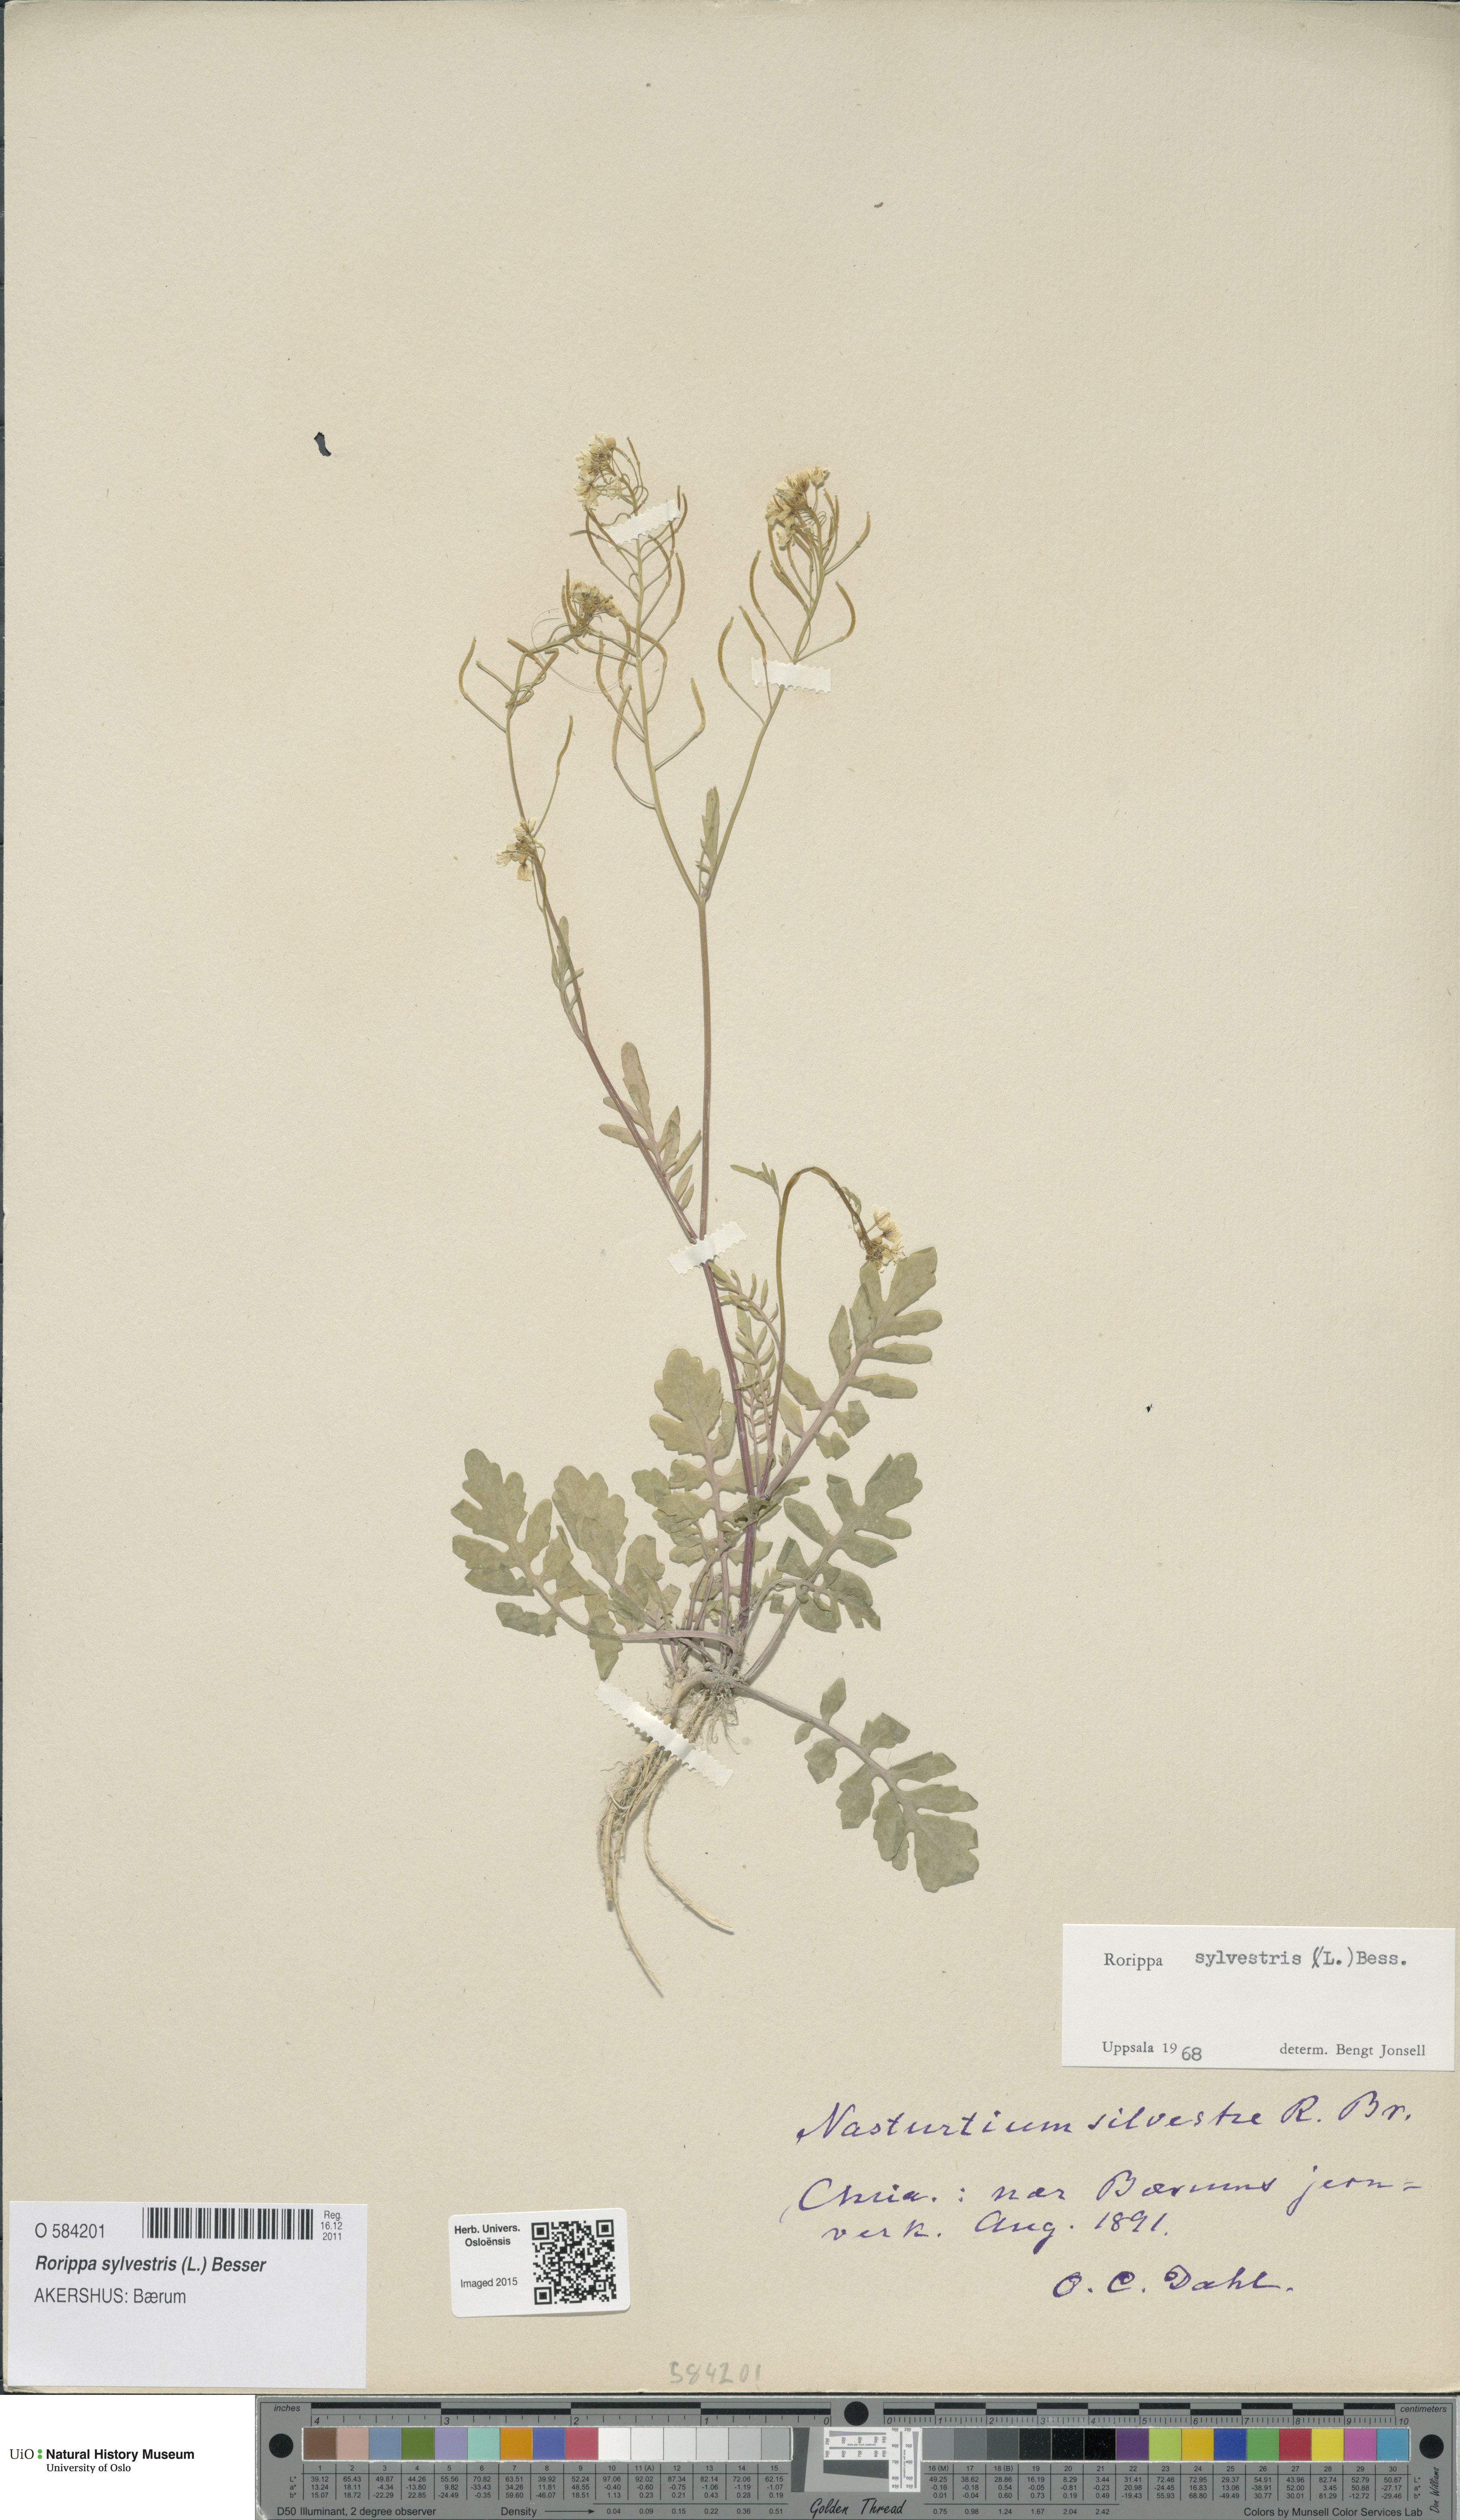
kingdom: Plantae
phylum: Tracheophyta
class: Magnoliopsida
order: Brassicales
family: Brassicaceae
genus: Rorippa
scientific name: Rorippa sylvestris
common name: Creeping yellowcress
